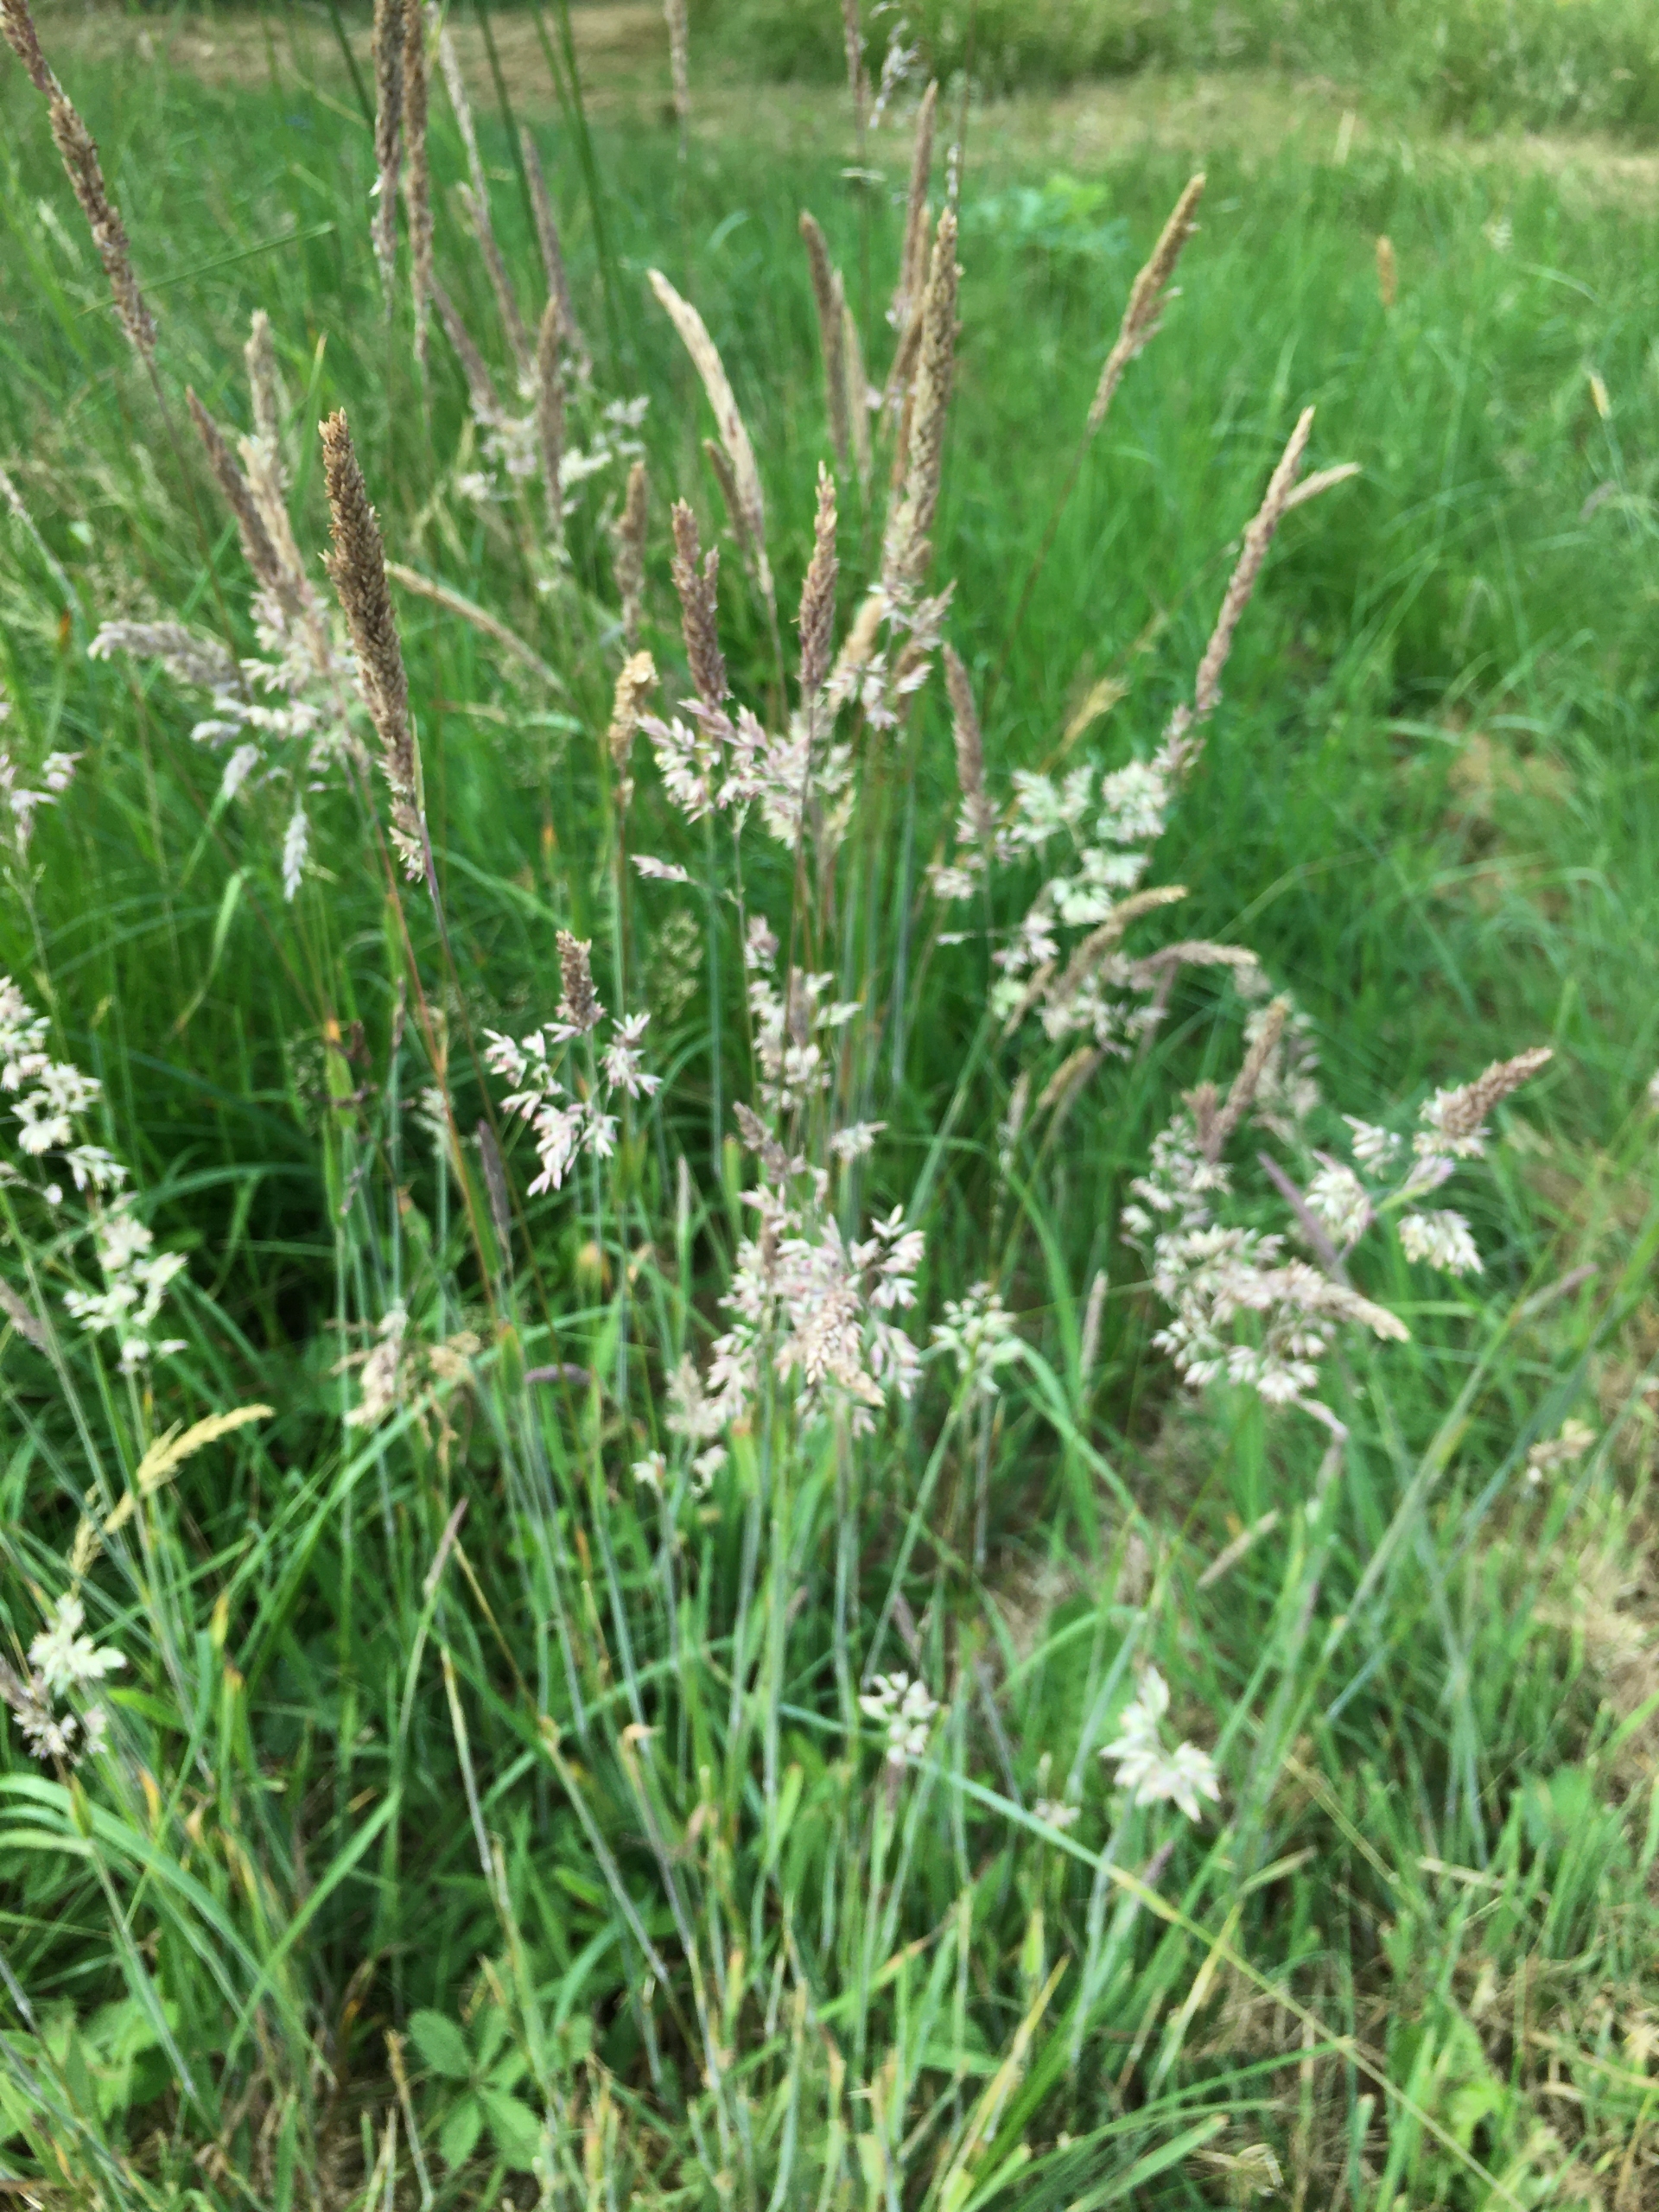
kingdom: Plantae
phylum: Tracheophyta
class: Liliopsida
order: Poales
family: Poaceae
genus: Holcus
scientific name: Holcus lanatus
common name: Fløjlsgræs
